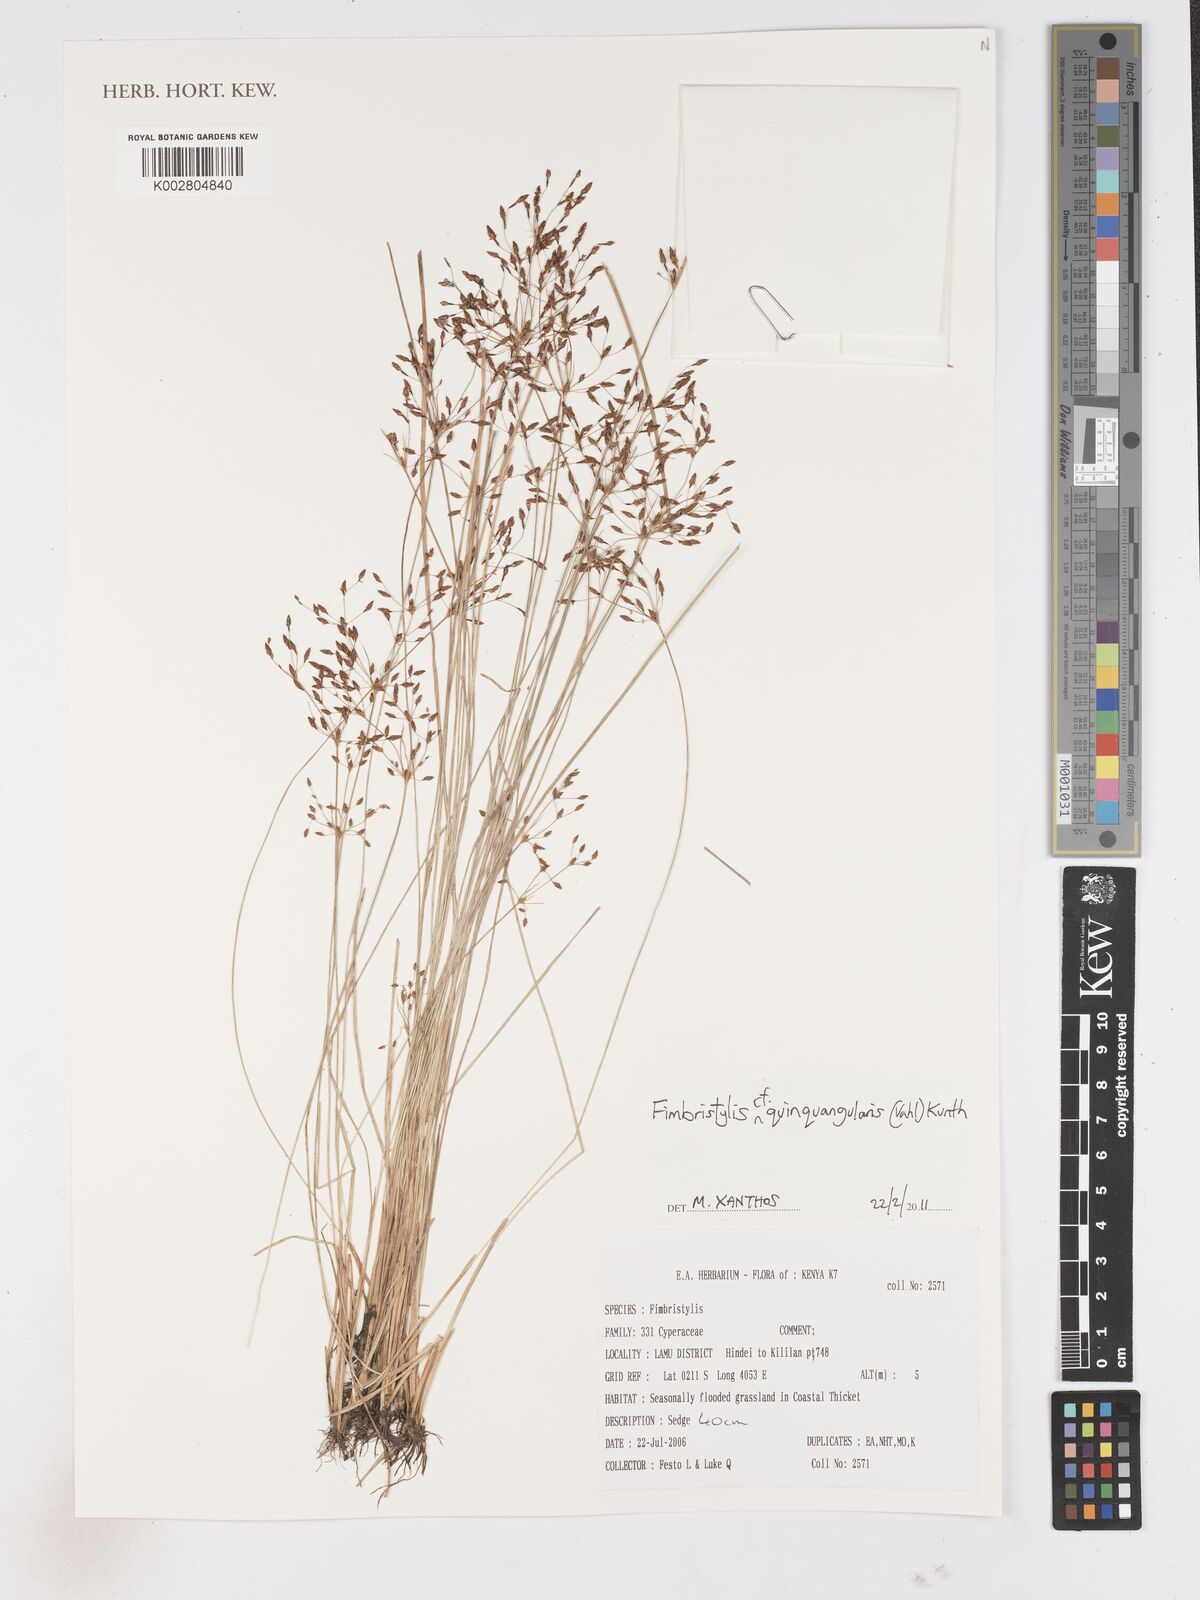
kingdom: Plantae
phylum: Tracheophyta
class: Liliopsida
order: Poales
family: Cyperaceae
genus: Fimbristylis
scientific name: Fimbristylis quinquangularis
